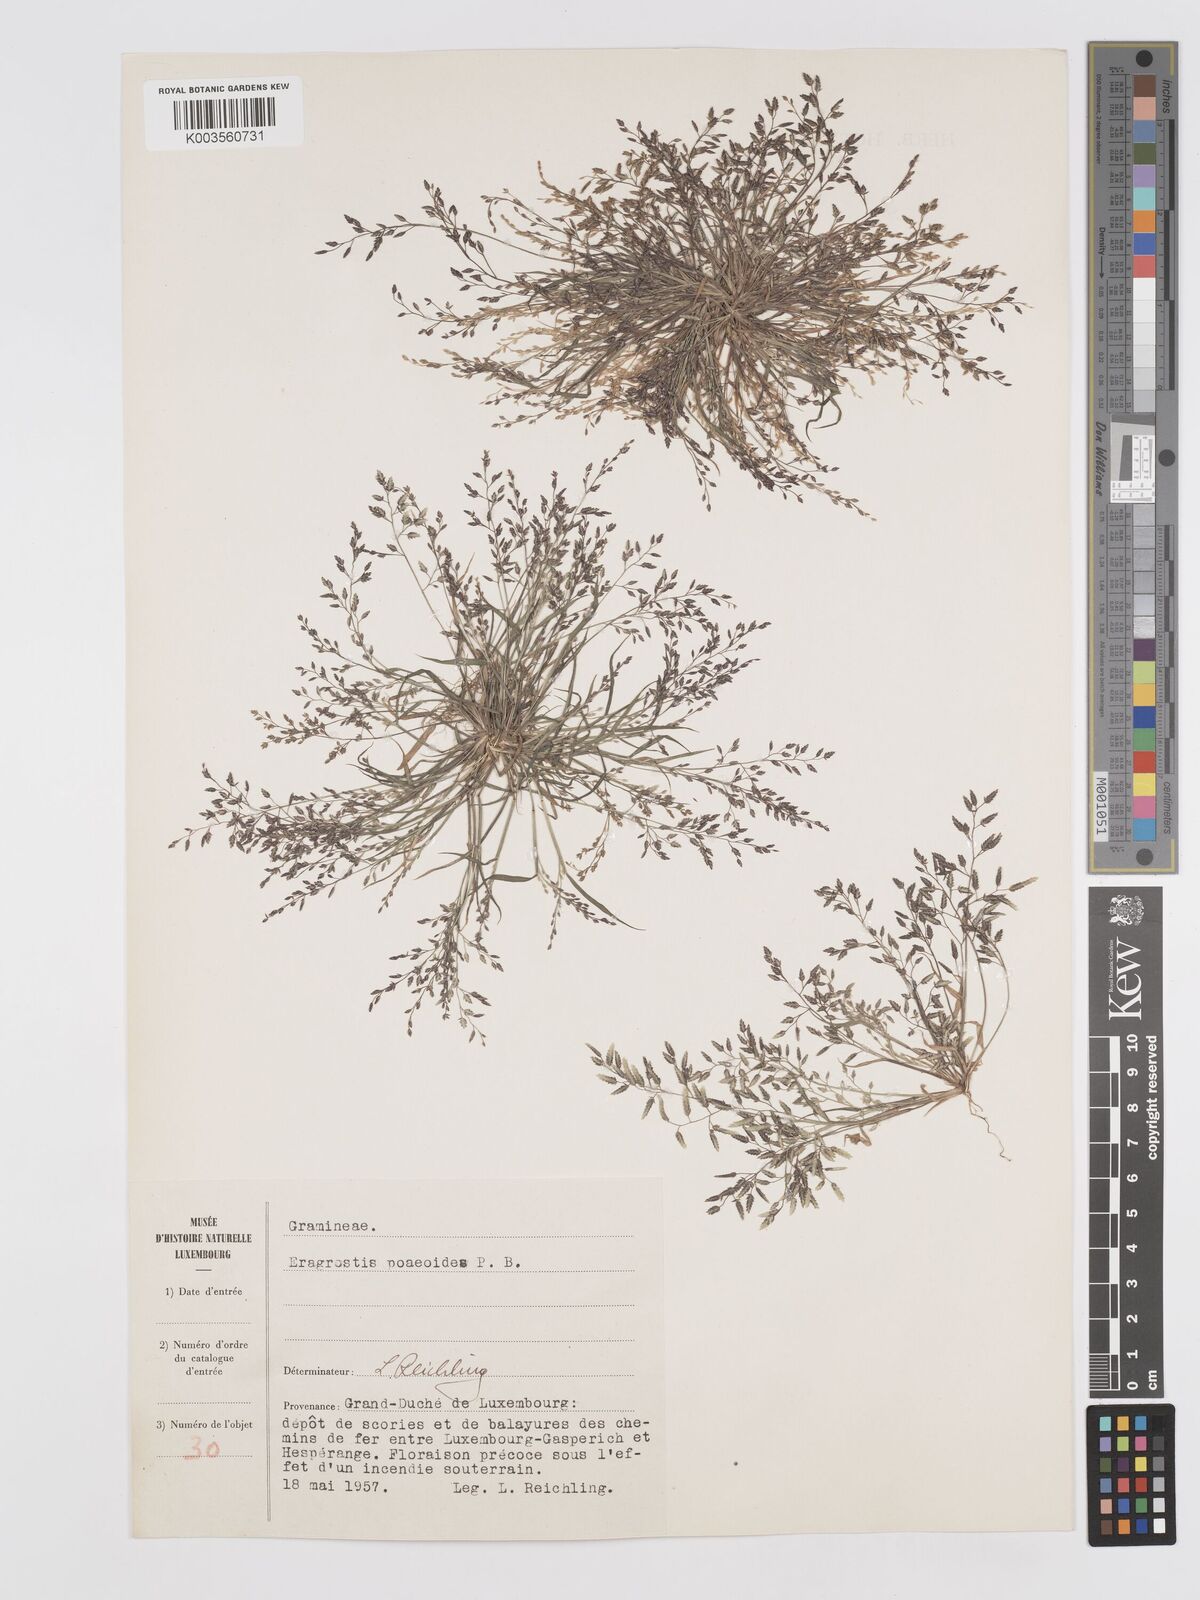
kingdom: Plantae
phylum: Tracheophyta
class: Liliopsida
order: Poales
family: Poaceae
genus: Eragrostis
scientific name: Eragrostis minor
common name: Small love-grass
